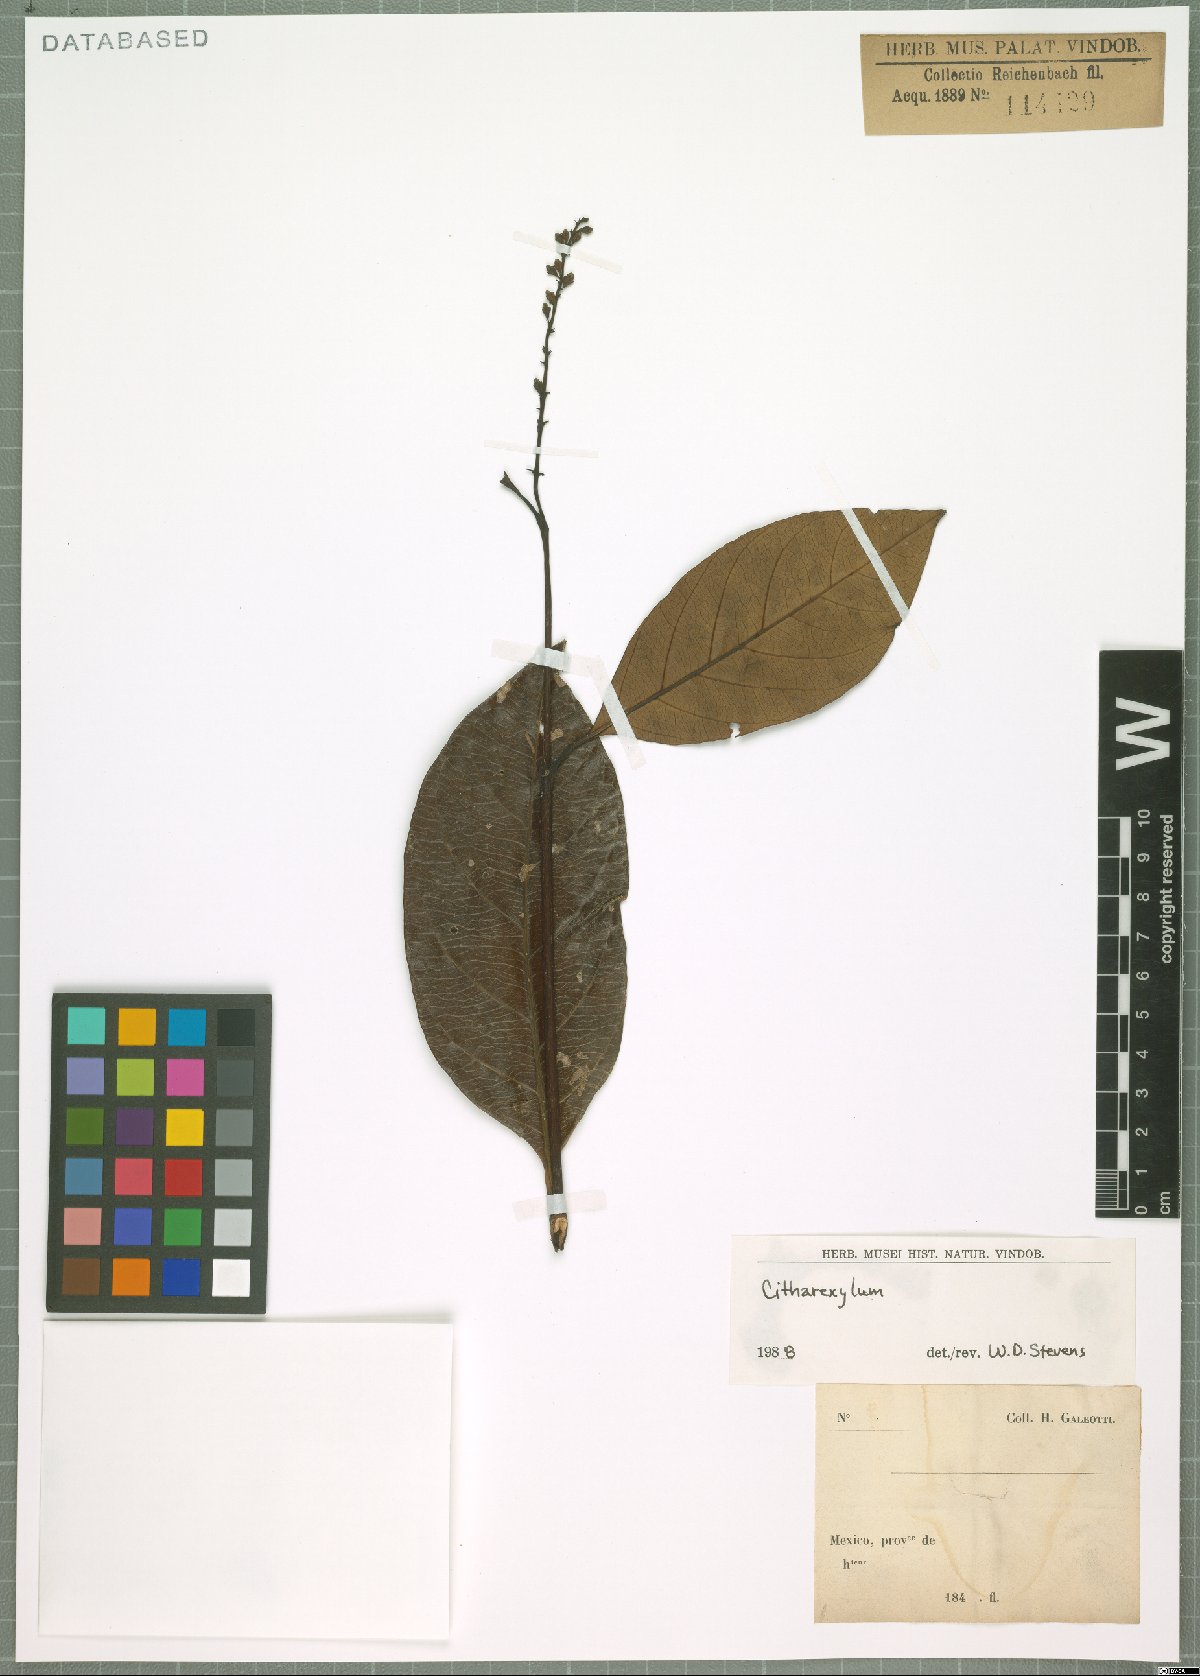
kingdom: Plantae
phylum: Tracheophyta
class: Magnoliopsida
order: Malpighiales
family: Euphorbiaceae
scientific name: Euphorbiaceae
